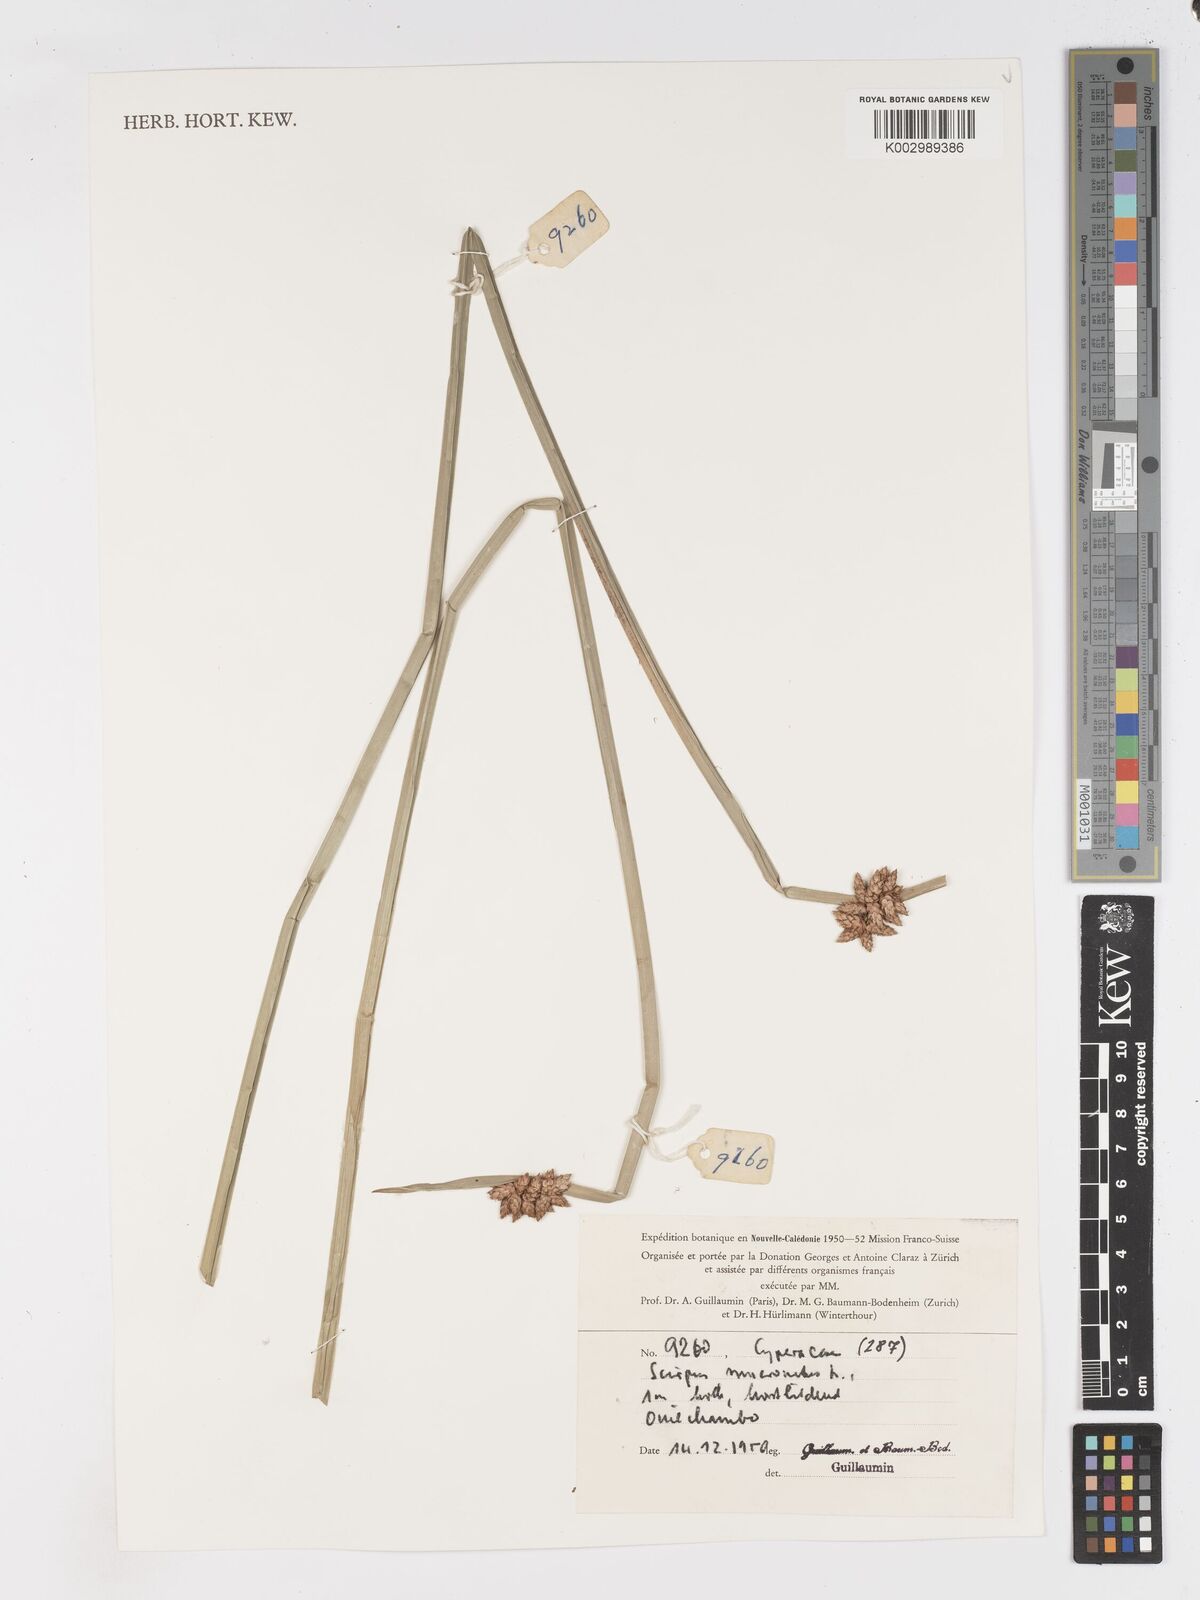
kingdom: Plantae
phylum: Tracheophyta
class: Liliopsida
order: Poales
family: Cyperaceae
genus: Schoenoplectiella
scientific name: Schoenoplectiella mucronata
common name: Bog bulrush
